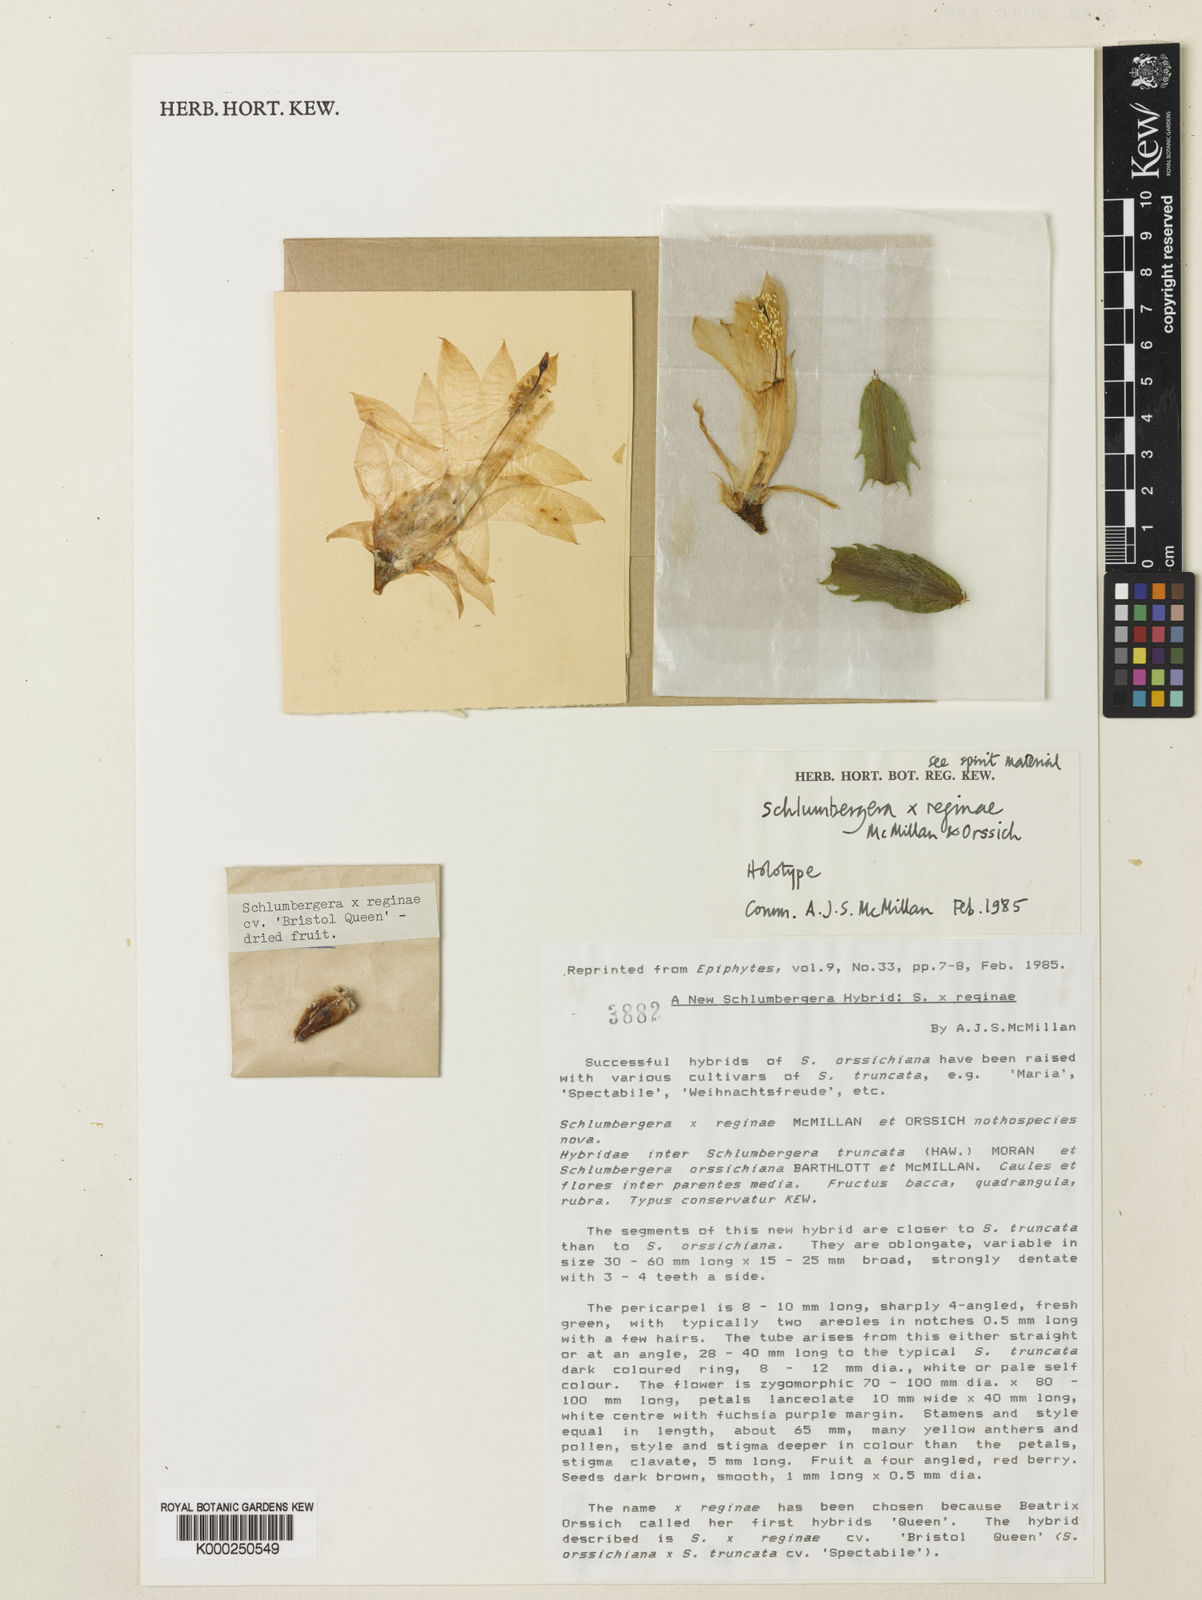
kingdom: Plantae
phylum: Tracheophyta
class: Magnoliopsida
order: Caryophyllales
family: Cactaceae
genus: Schlumbergera
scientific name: Schlumbergera
